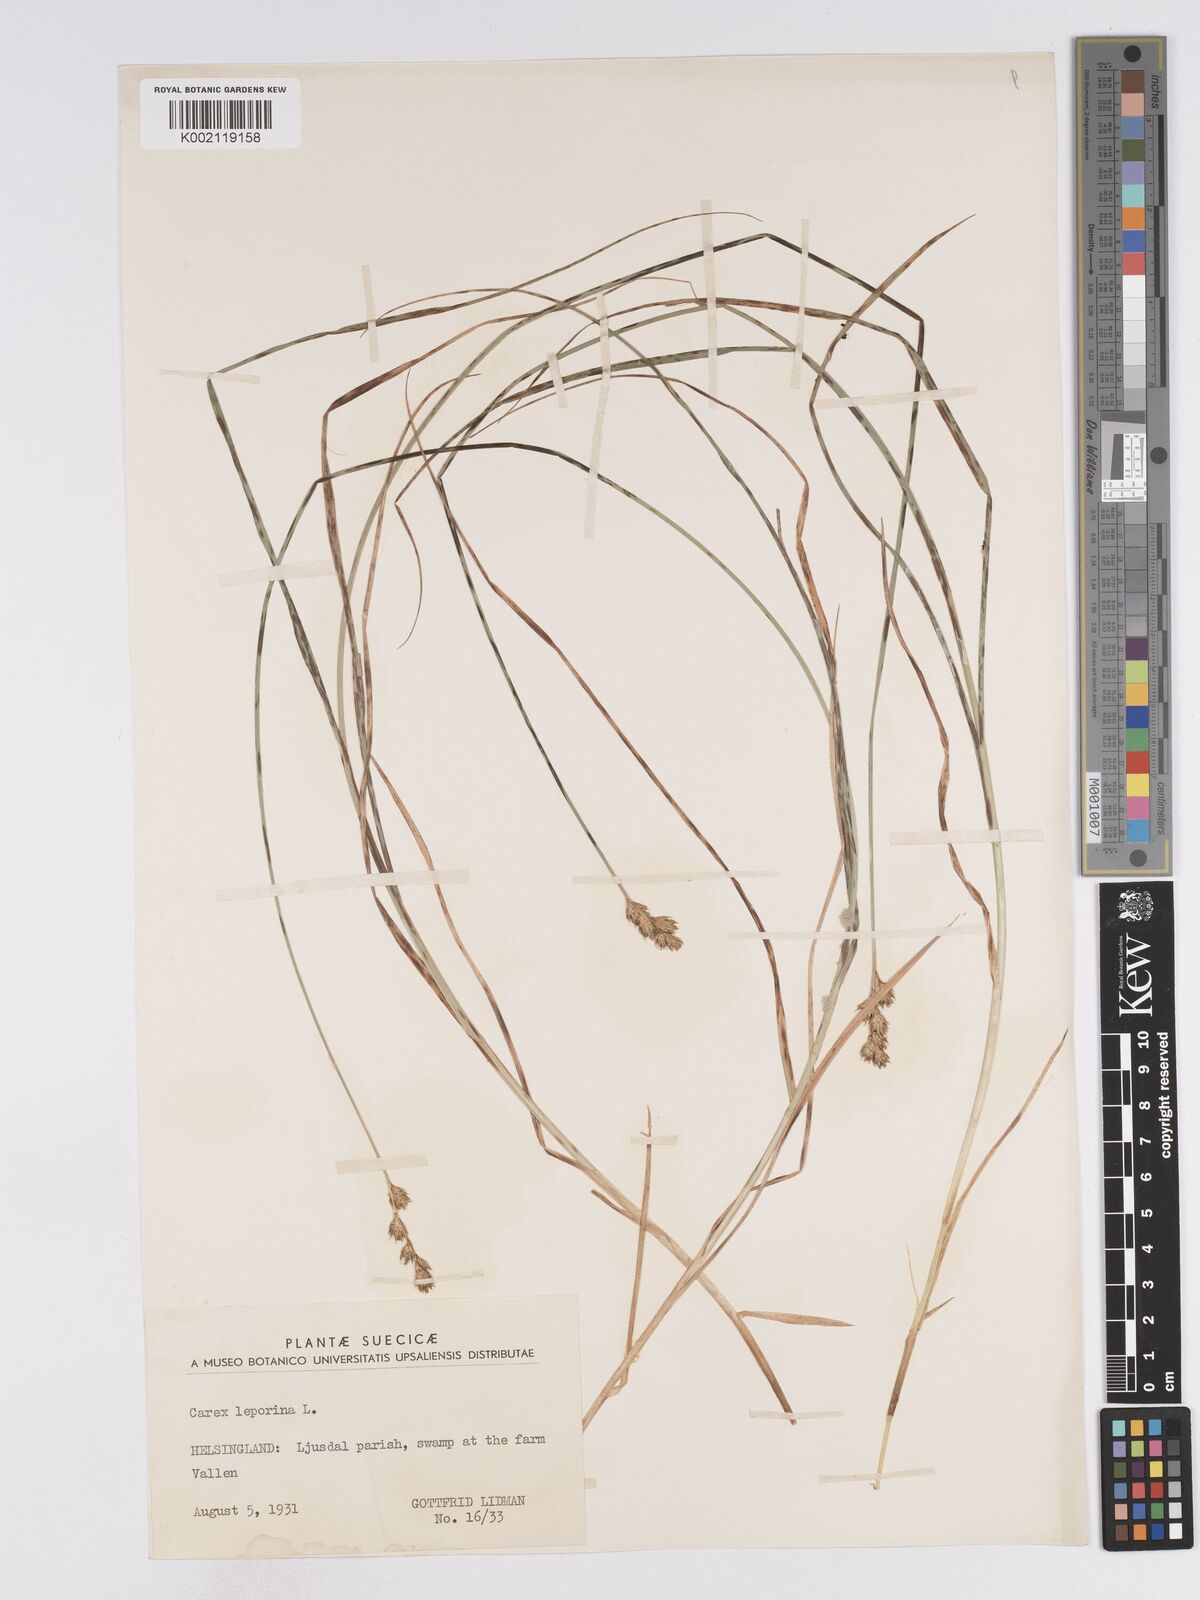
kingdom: Plantae
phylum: Tracheophyta
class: Liliopsida
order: Poales
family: Cyperaceae
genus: Carex
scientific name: Carex leporina
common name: Oval sedge
